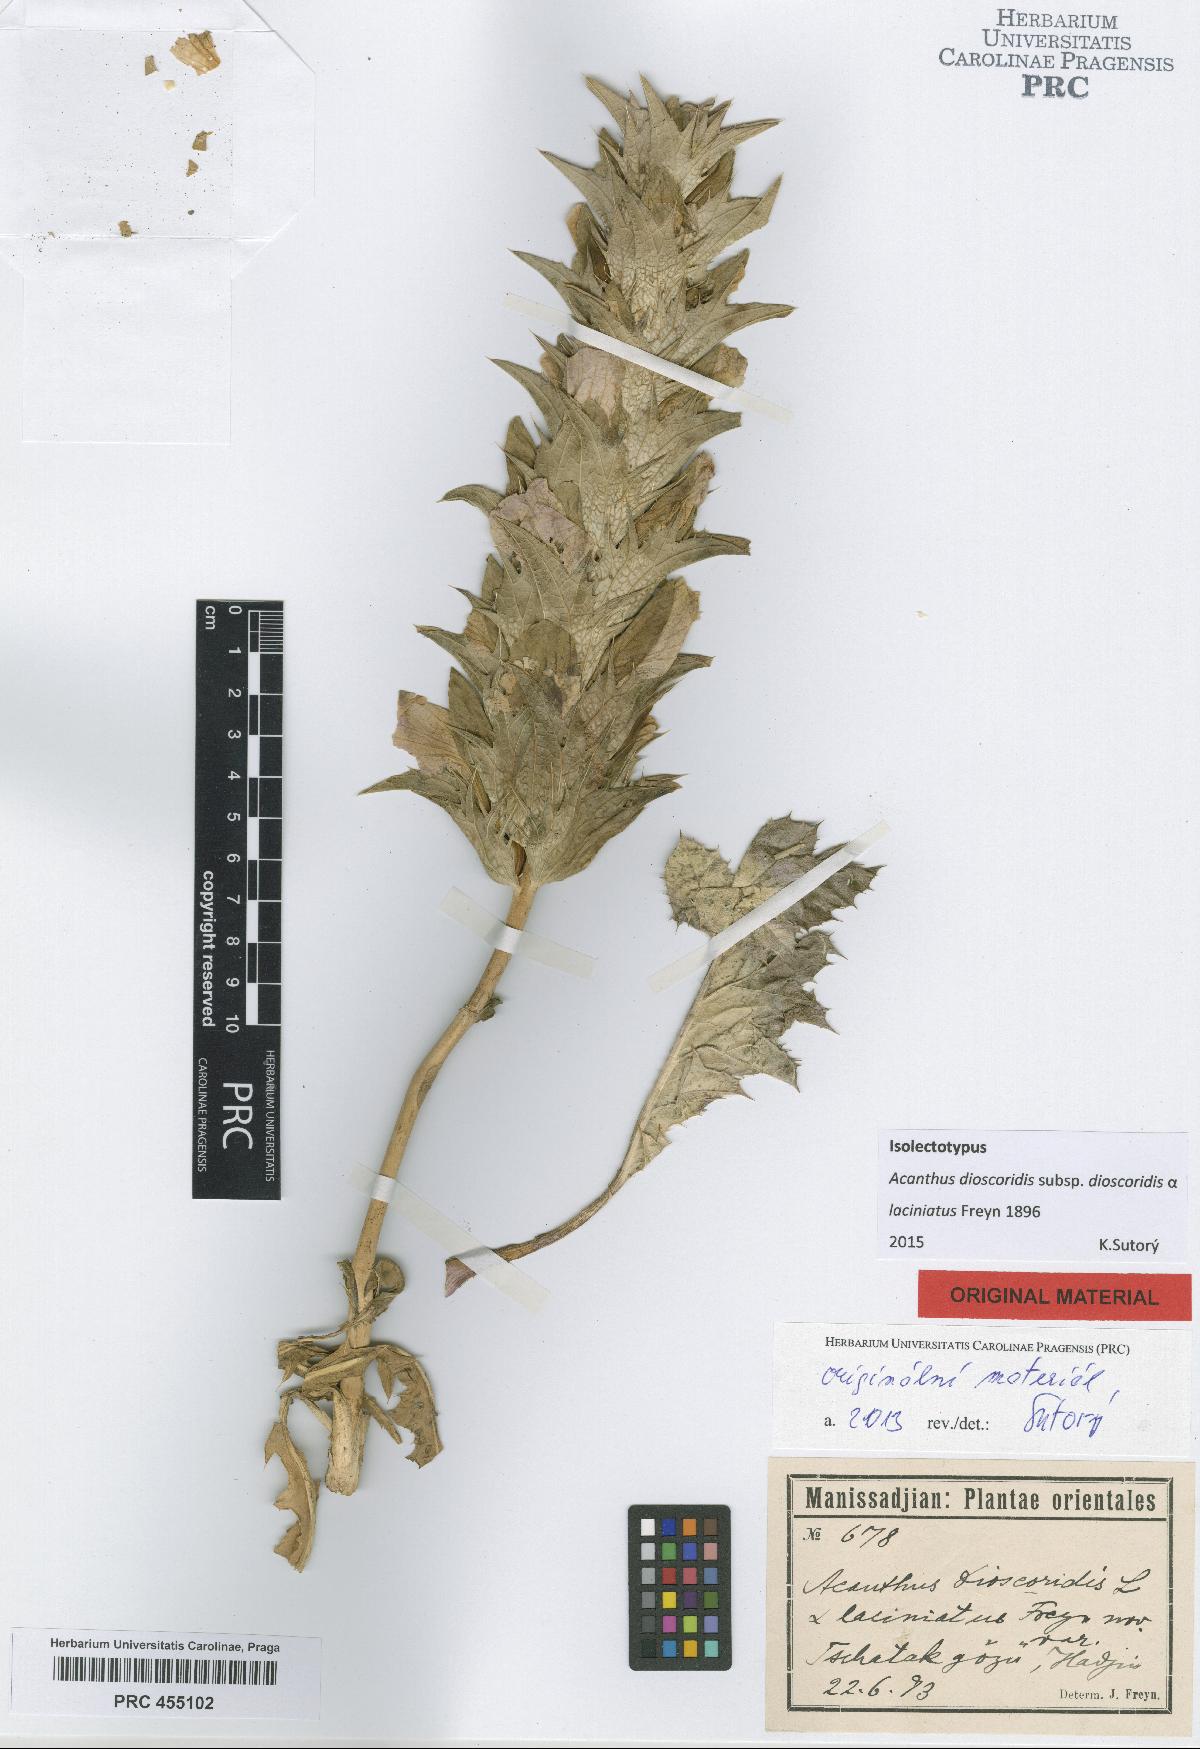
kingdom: Plantae
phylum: Tracheophyta
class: Magnoliopsida
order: Lamiales
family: Acanthaceae
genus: Acanthus
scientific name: Acanthus dioscoridis
